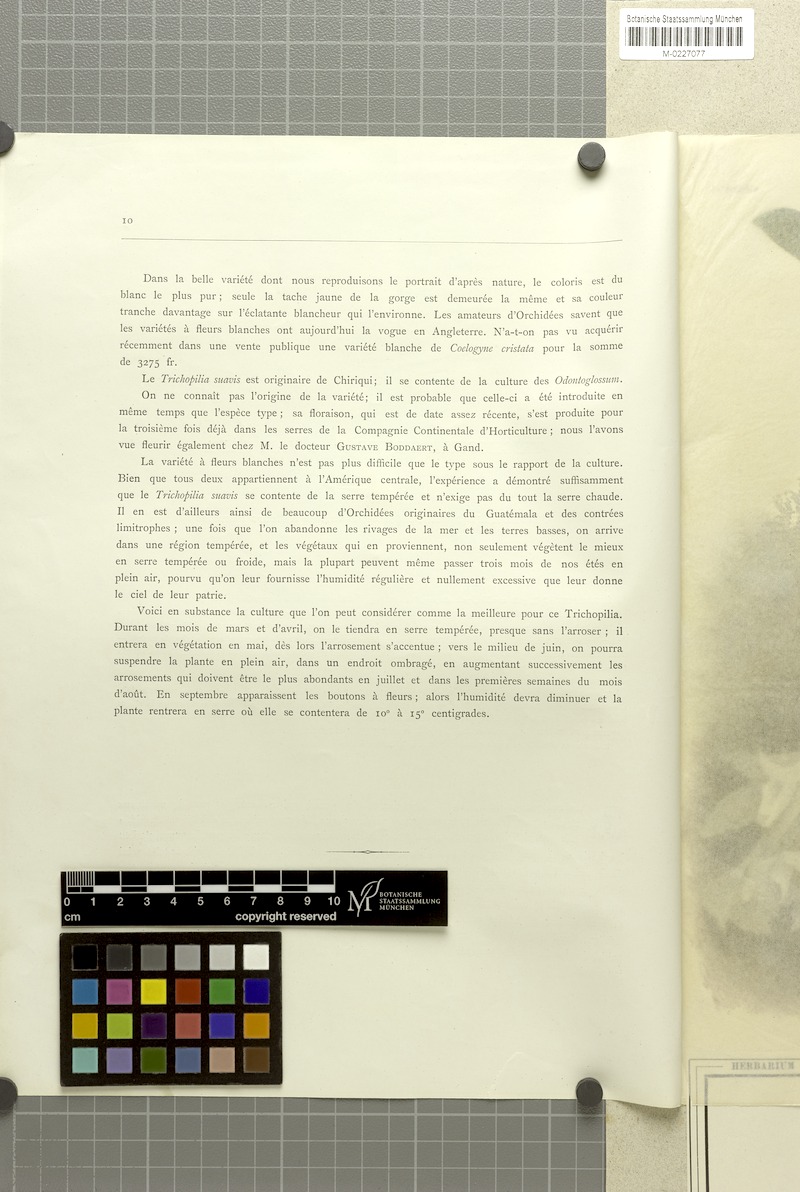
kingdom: Plantae
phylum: Tracheophyta
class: Liliopsida
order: Asparagales
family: Orchidaceae
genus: Trichopilia
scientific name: Trichopilia suavis
